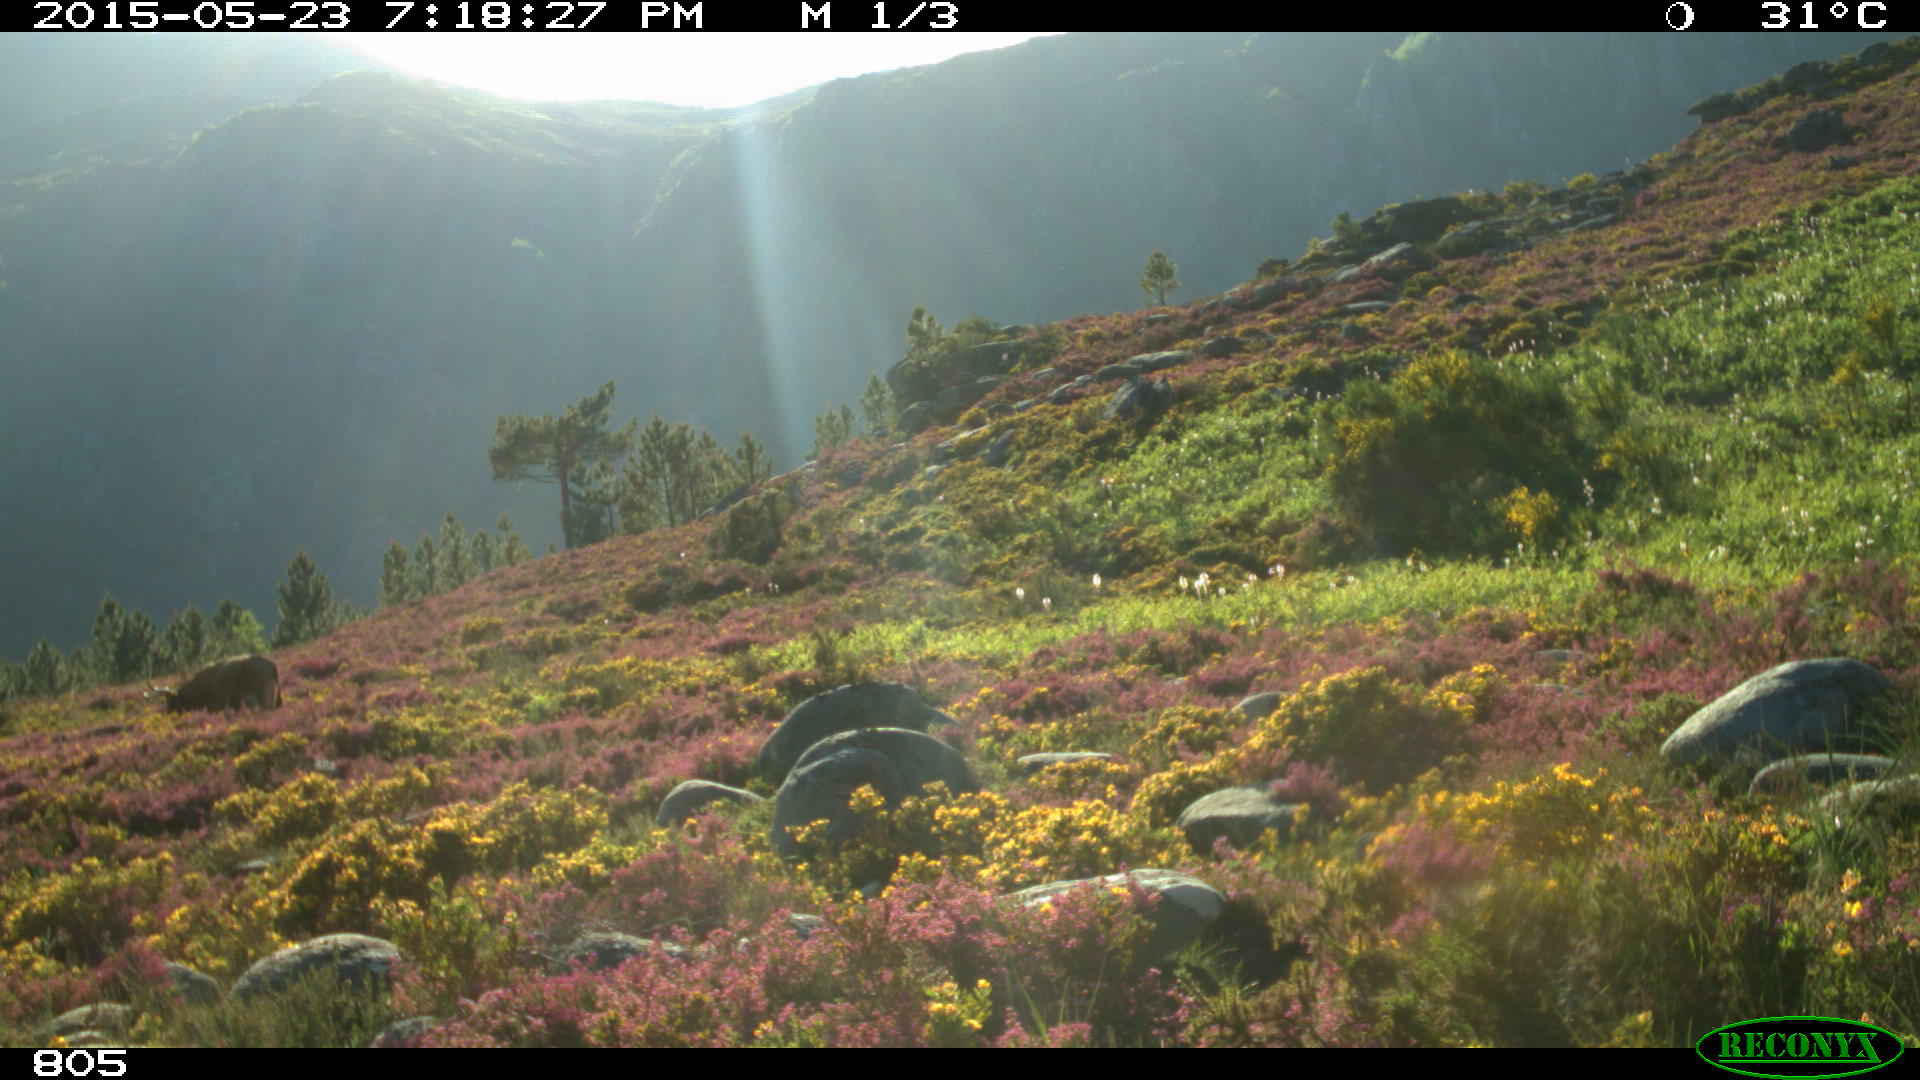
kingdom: Animalia
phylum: Chordata
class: Mammalia
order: Artiodactyla
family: Bovidae
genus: Bos
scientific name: Bos taurus
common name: Domesticated cattle
